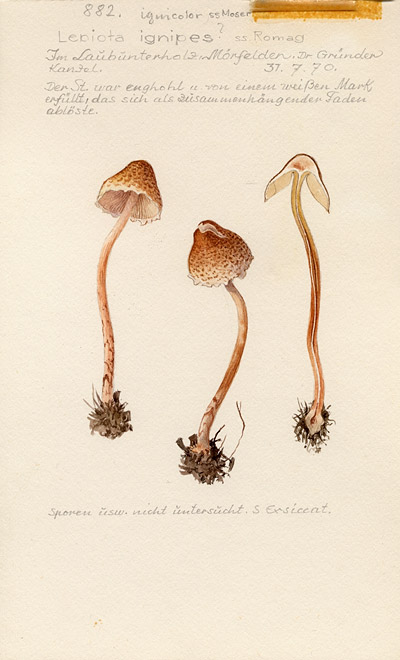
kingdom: Fungi
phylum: Basidiomycota
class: Agaricomycetes
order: Agaricales
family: Agaricaceae
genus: Lepiota
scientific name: Lepiota castanea
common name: Chestnut dapperling
